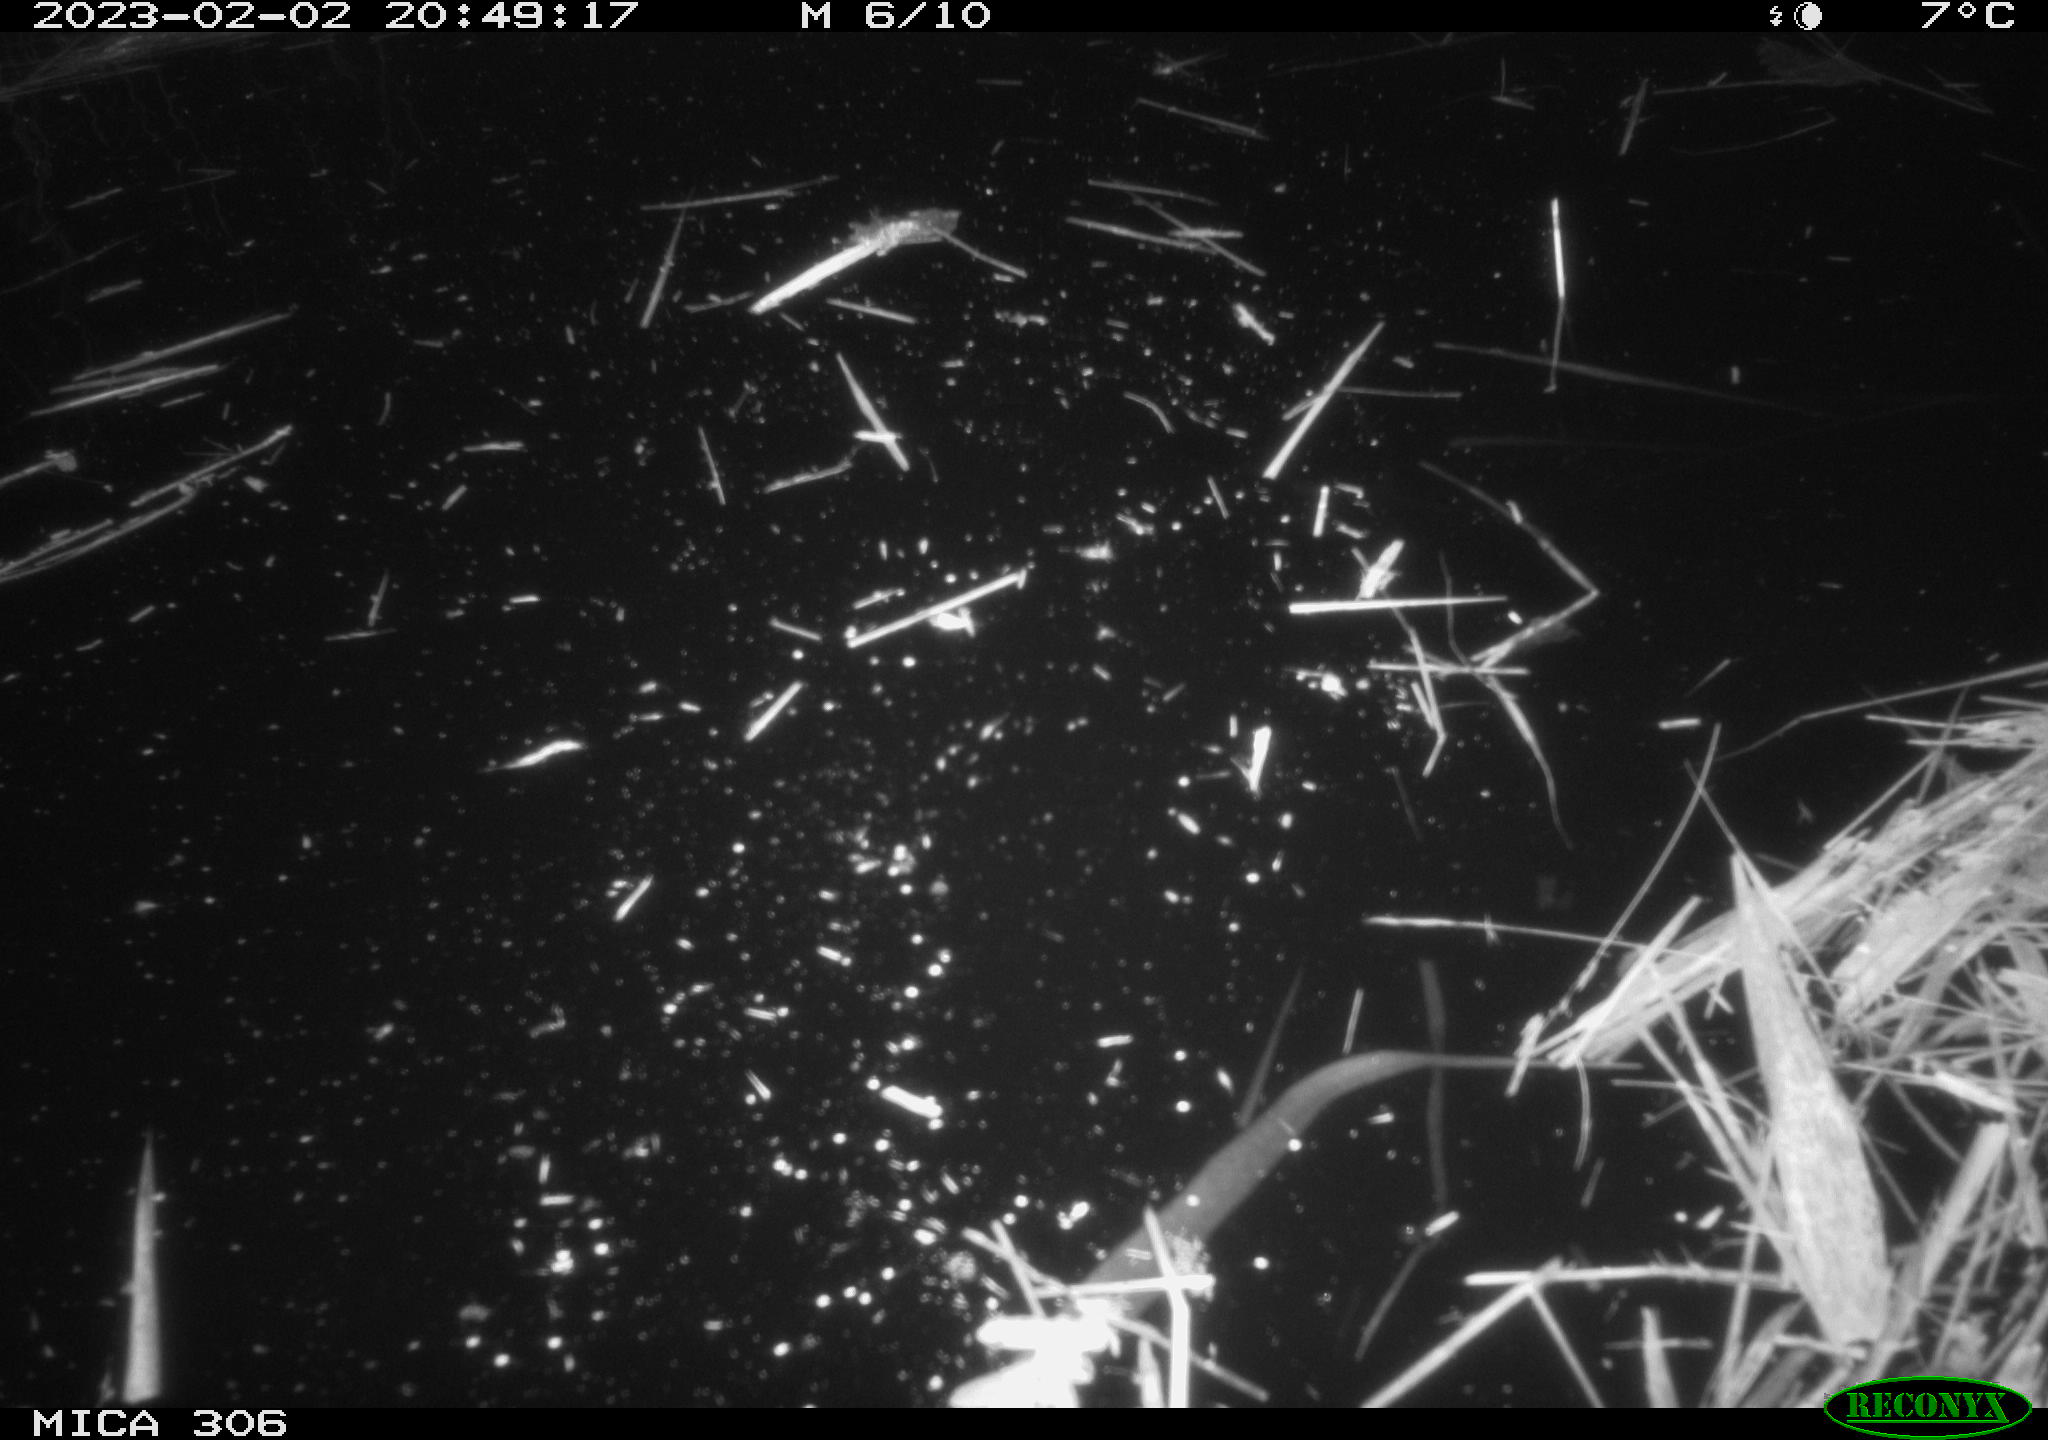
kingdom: Animalia
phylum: Chordata
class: Mammalia
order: Rodentia
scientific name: Rodentia
